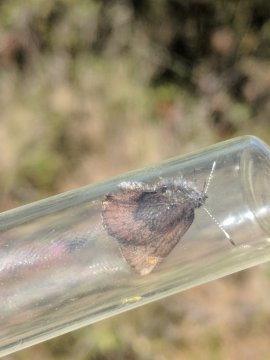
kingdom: Animalia
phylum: Arthropoda
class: Insecta
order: Lepidoptera
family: Lycaenidae
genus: Incisalia
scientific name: Incisalia irioides
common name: Brown Elfin
